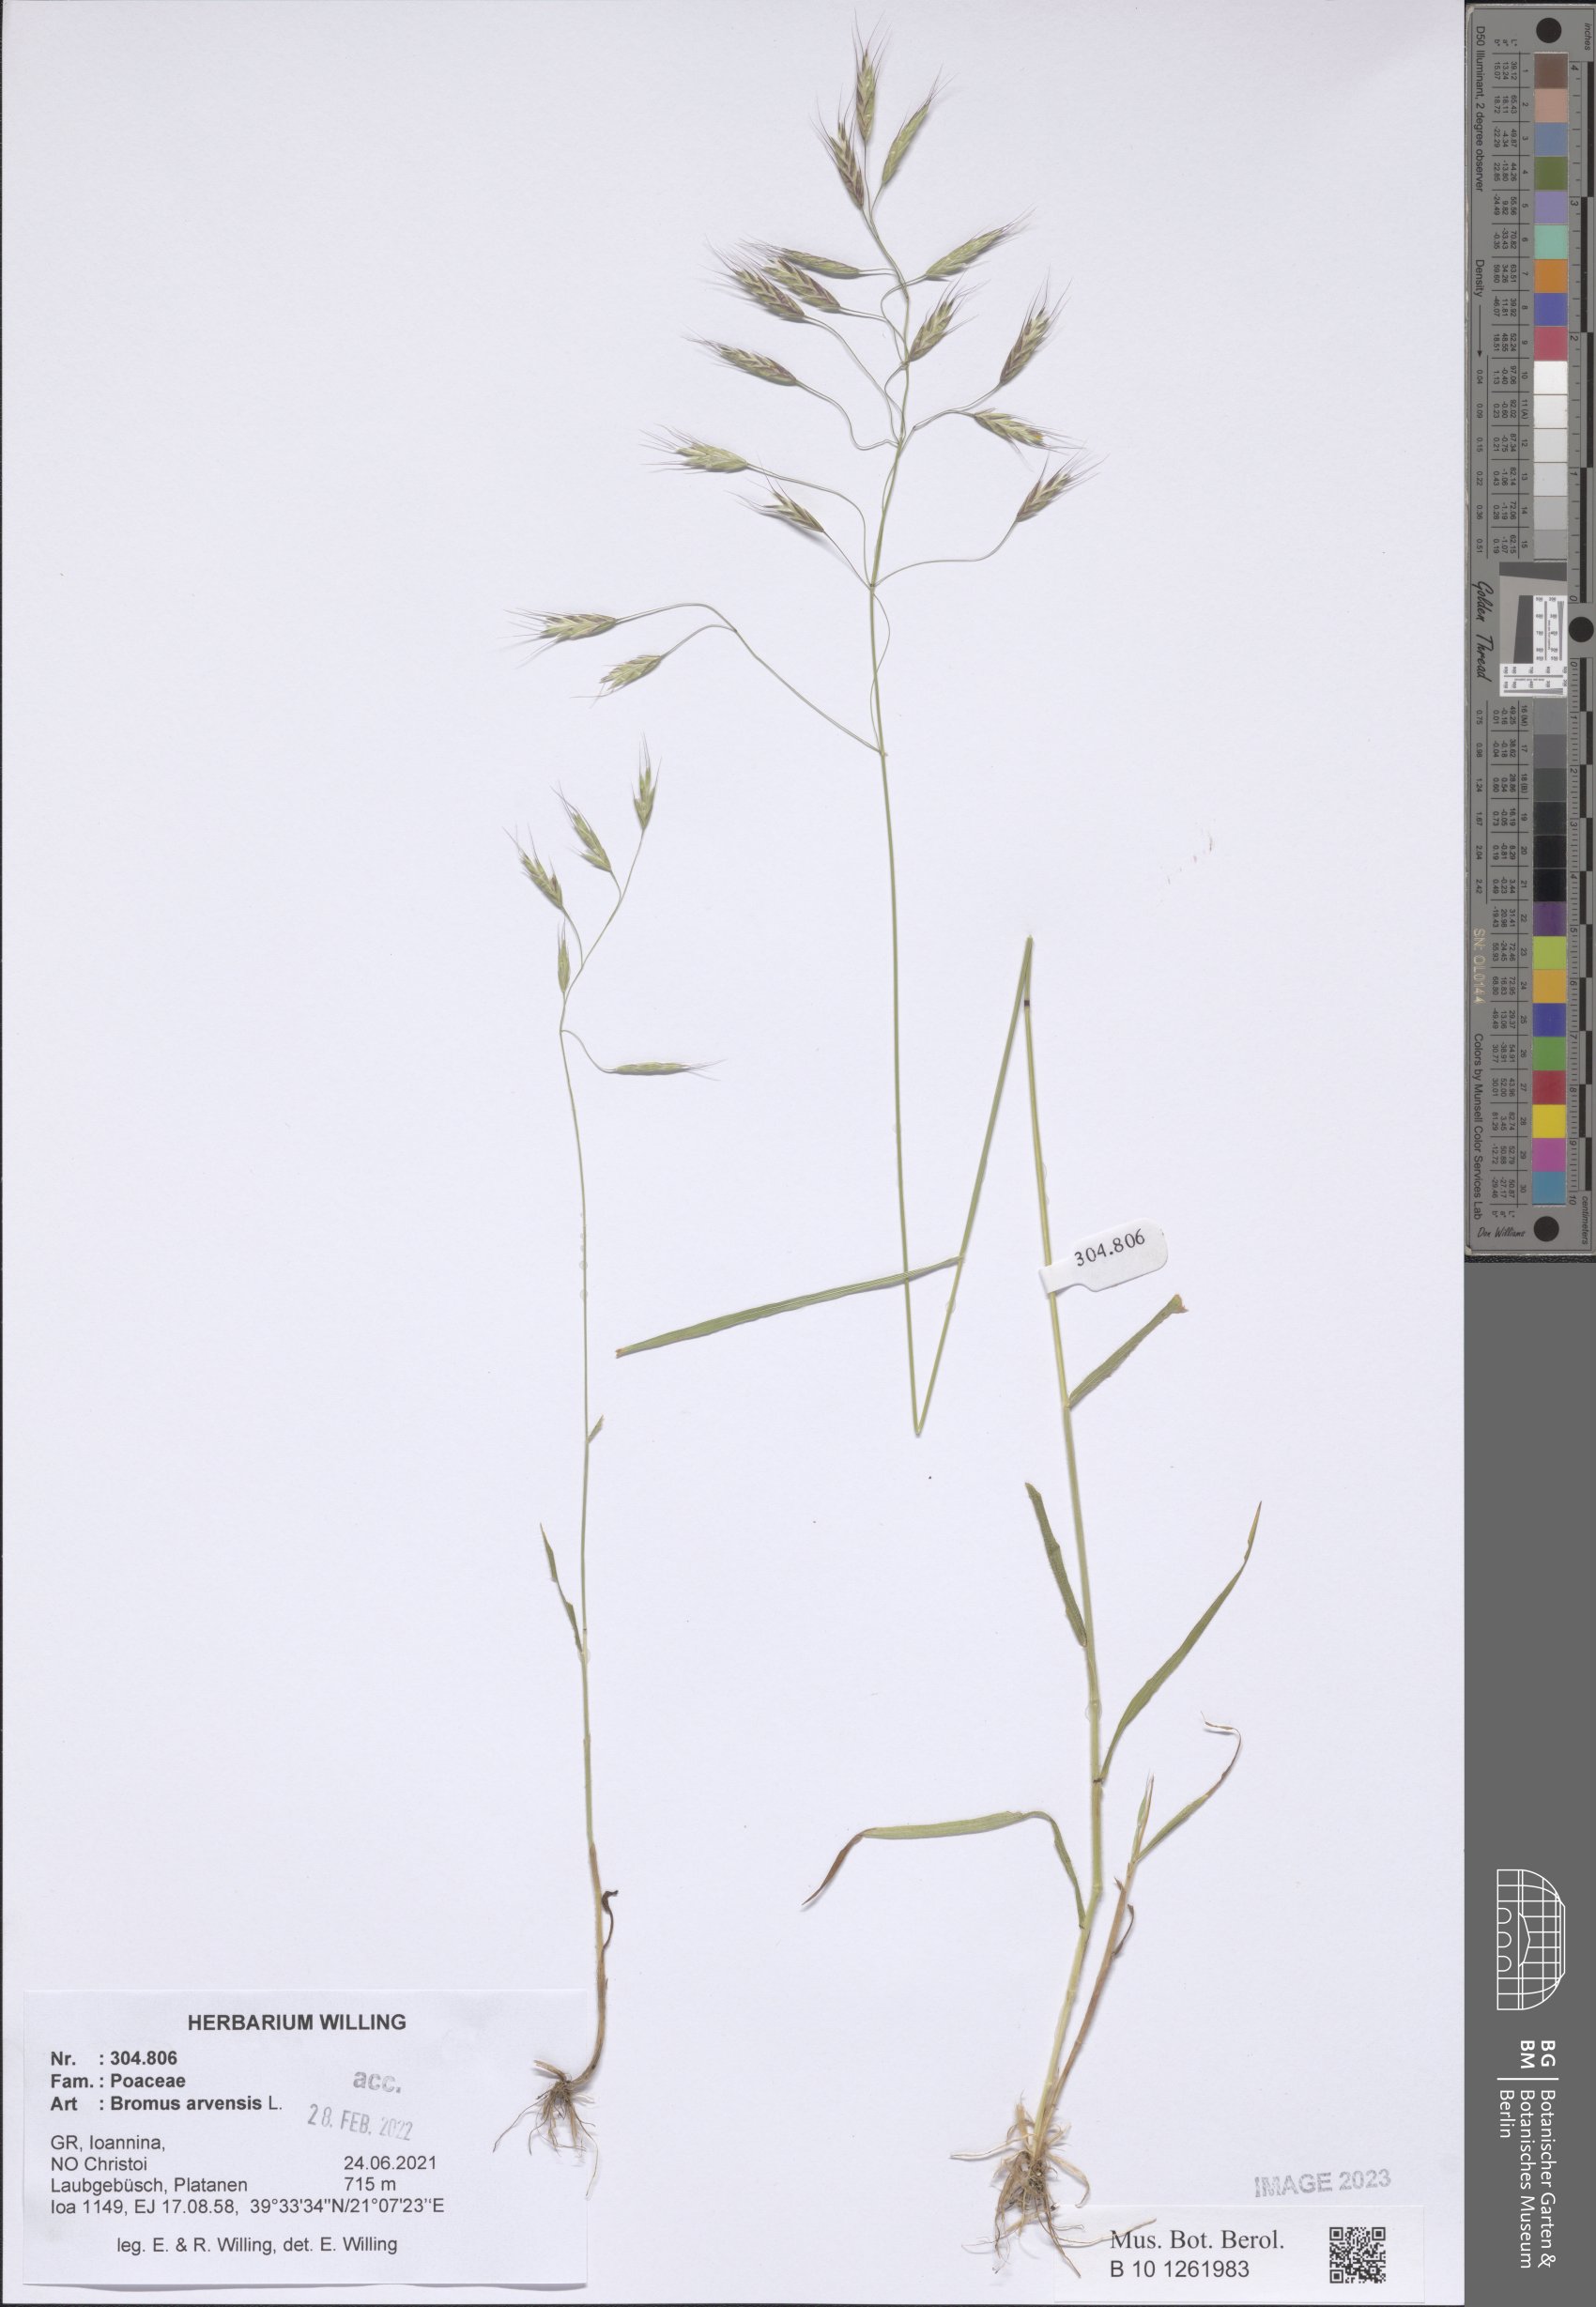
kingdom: Plantae
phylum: Tracheophyta
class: Liliopsida
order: Poales
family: Poaceae
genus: Bromus
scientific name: Bromus arvensis
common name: Field brome
